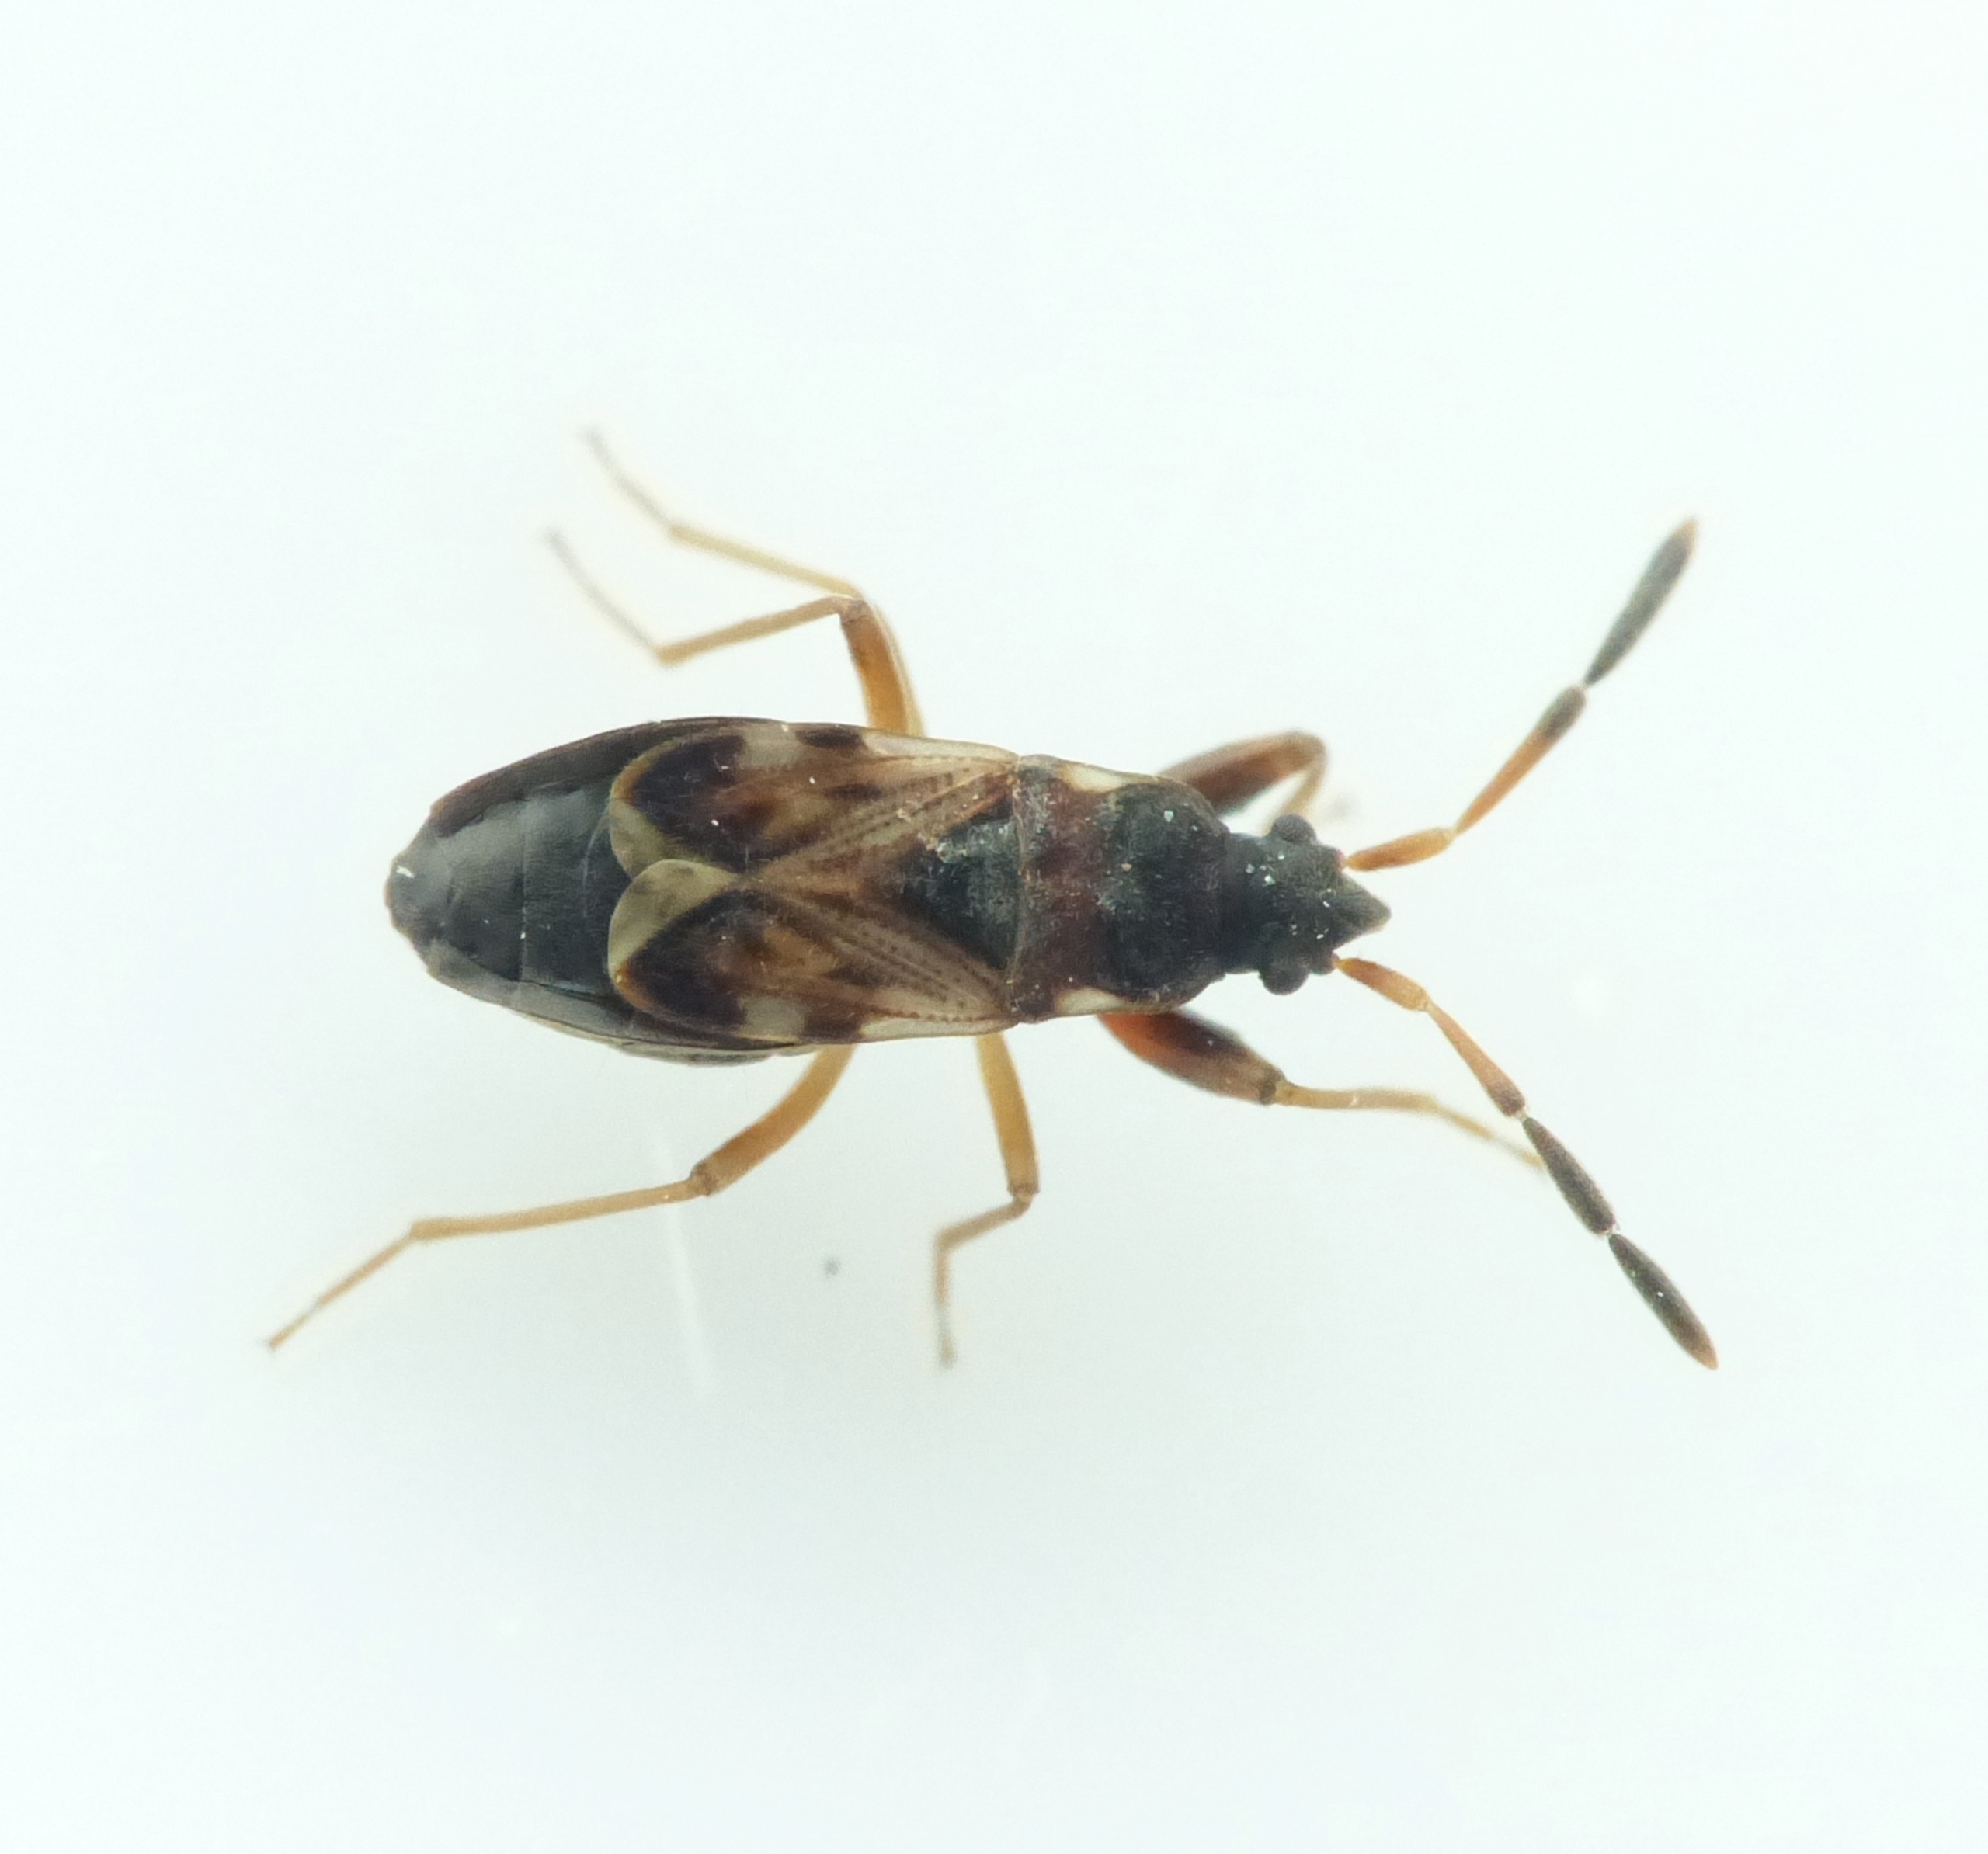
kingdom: Animalia
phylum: Arthropoda
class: Insecta
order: Hemiptera
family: Rhyparochromidae
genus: Scolopostethus
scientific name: Scolopostethus thomsoni
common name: Jordbærfrøtæge
